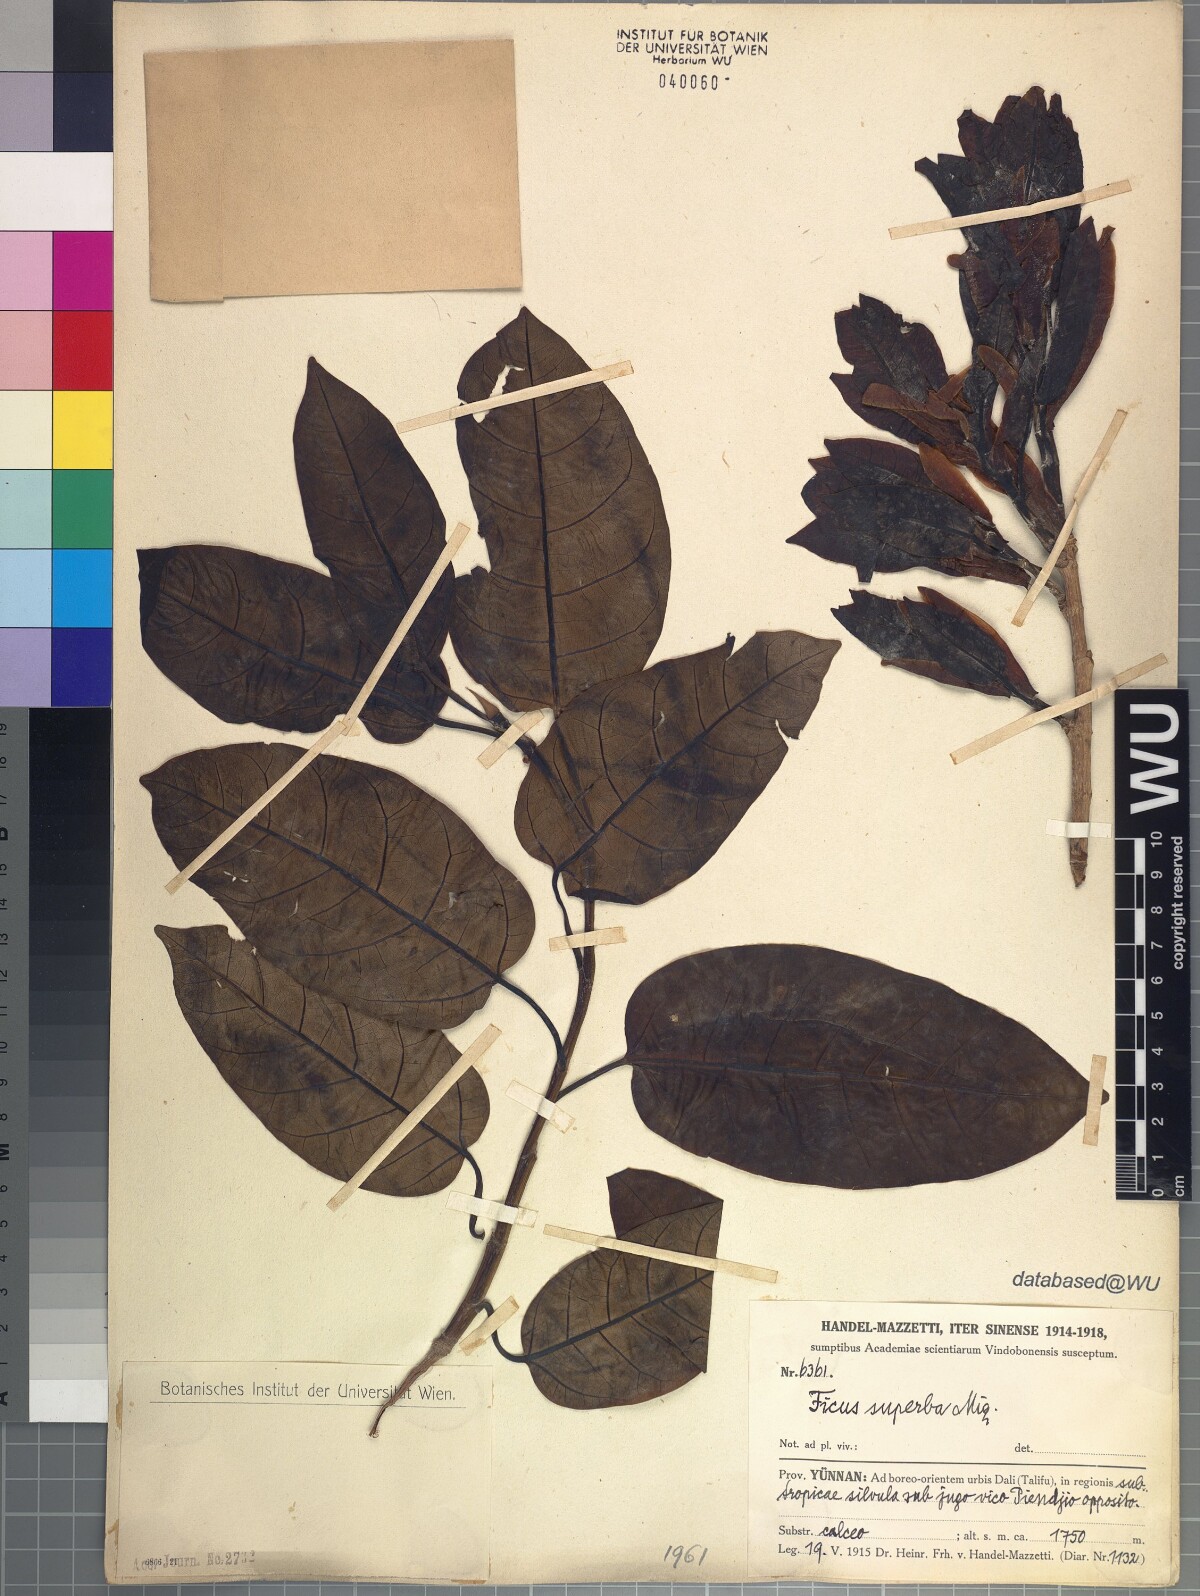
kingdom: Plantae
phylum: Tracheophyta
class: Magnoliopsida
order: Rosales
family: Moraceae
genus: Ficus
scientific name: Ficus superba
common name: Cedar fig
